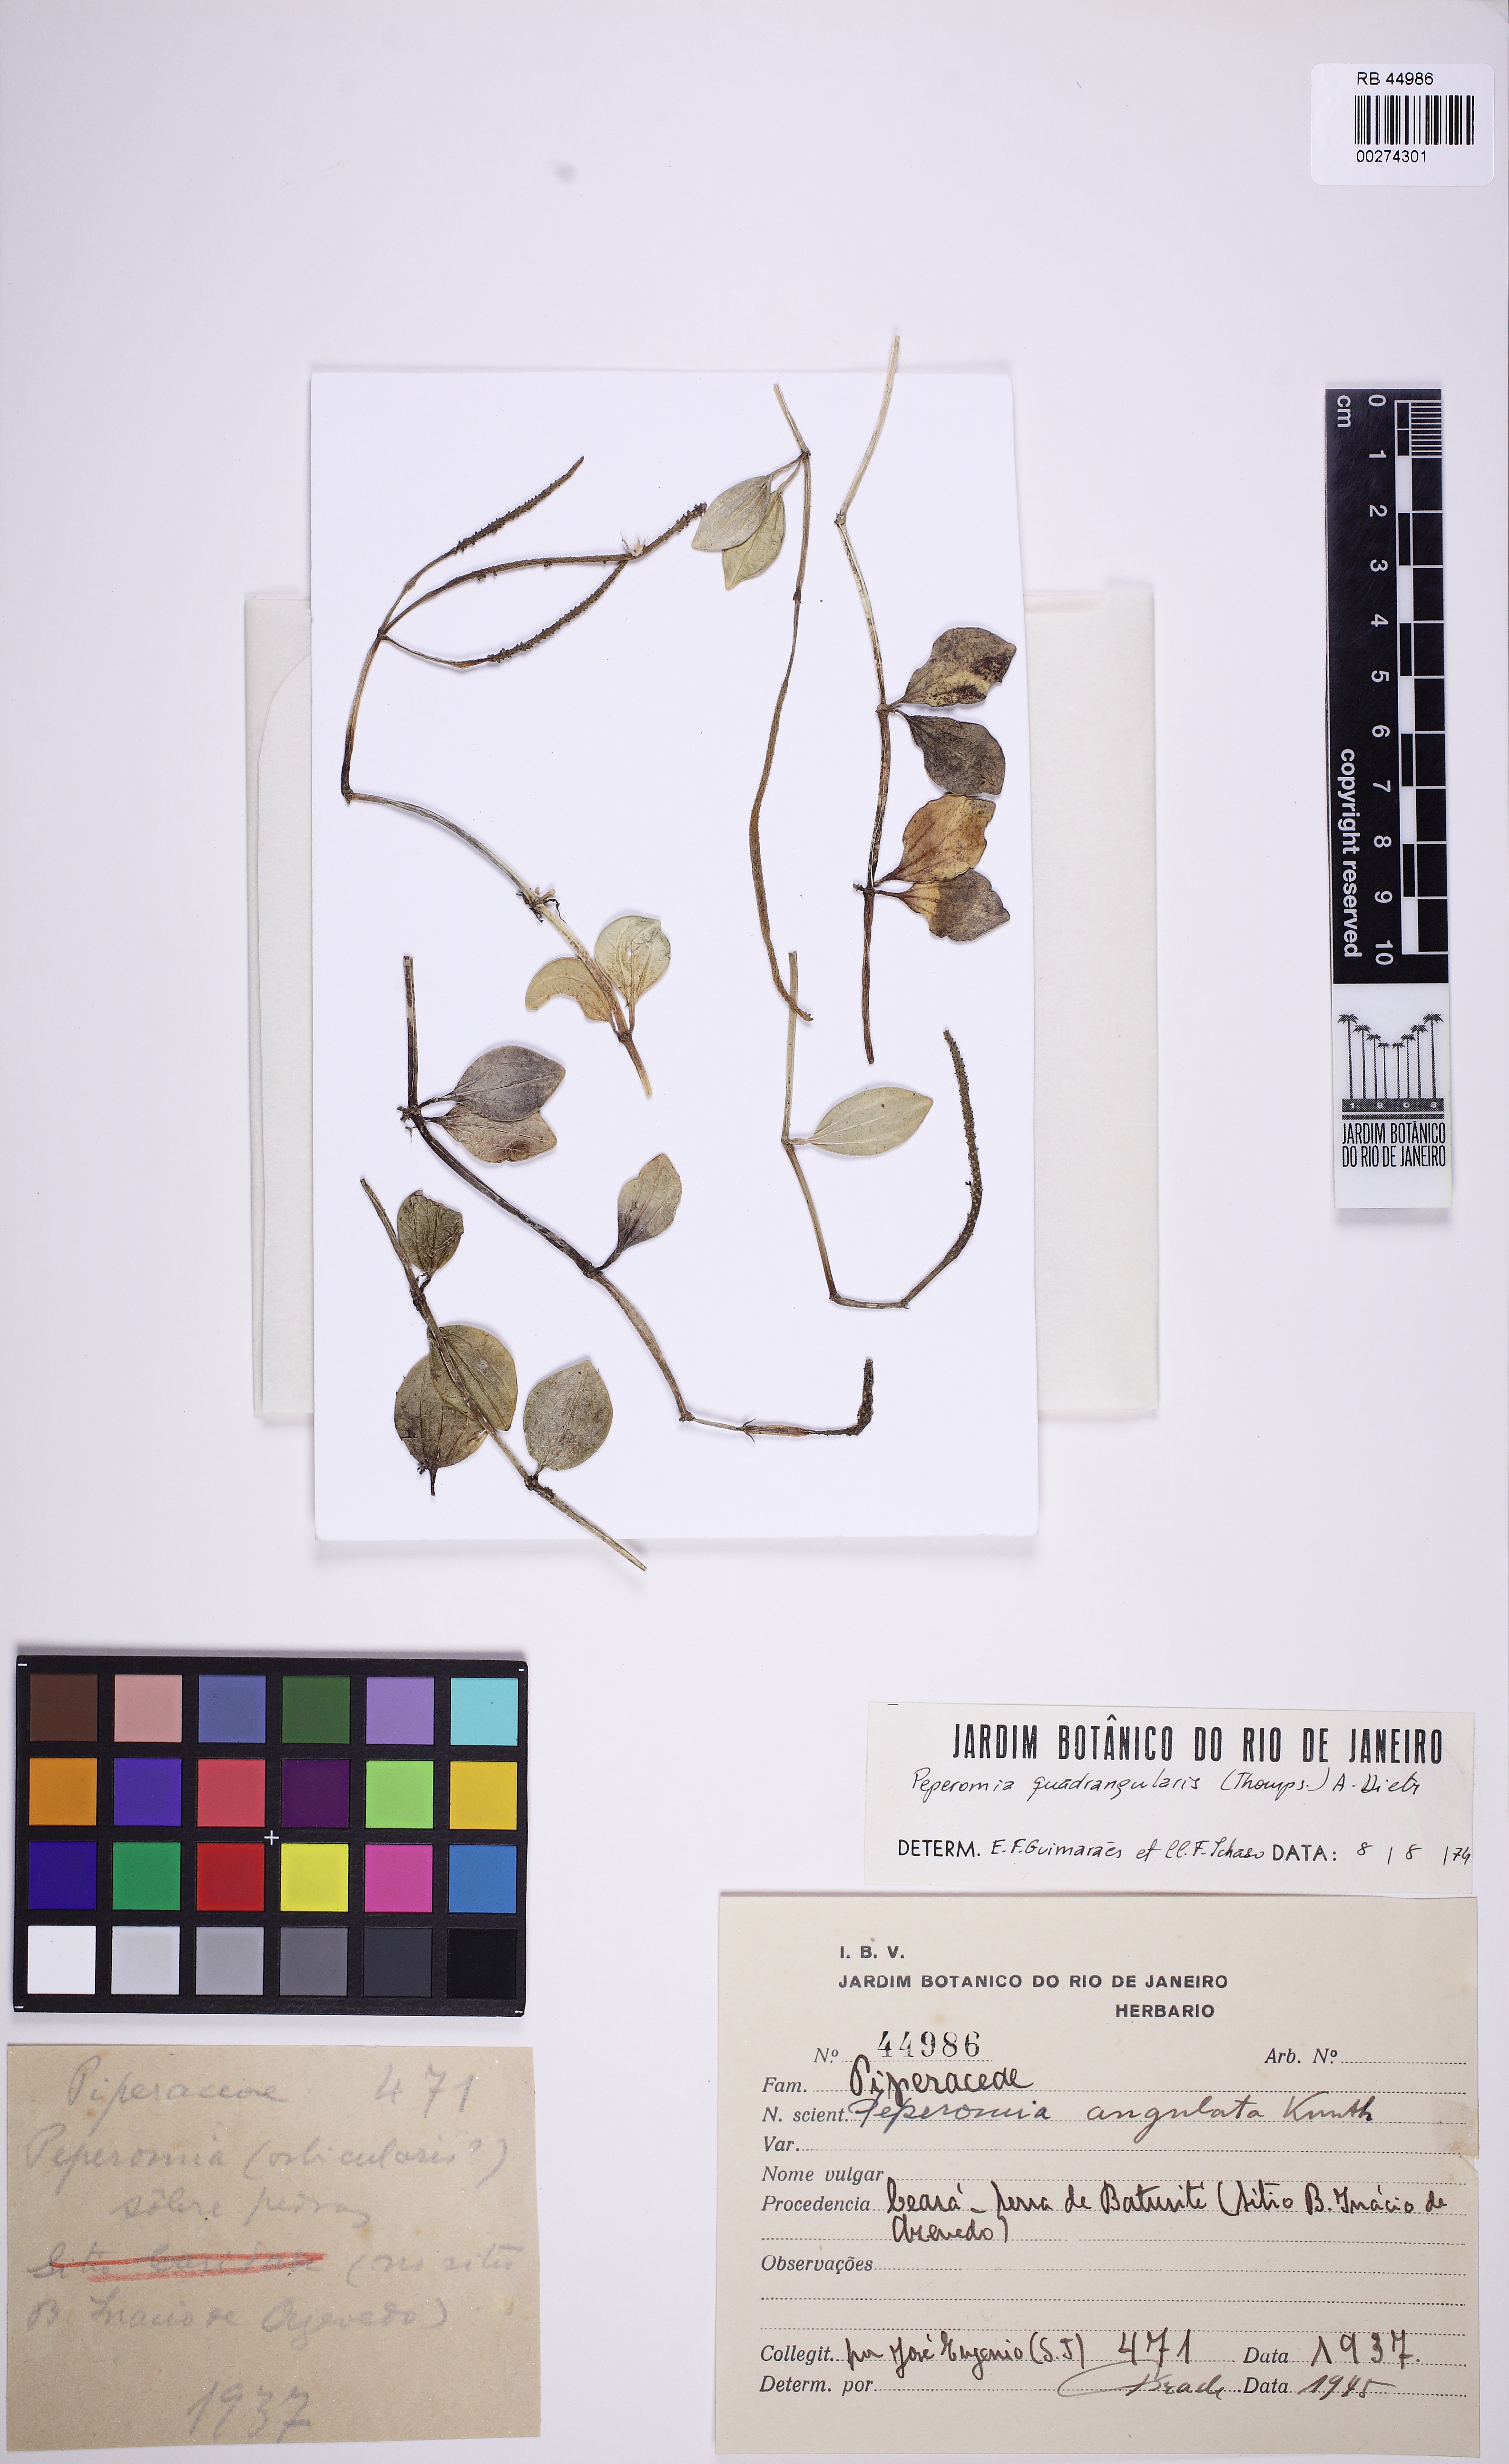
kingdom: Plantae
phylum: Tracheophyta
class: Magnoliopsida
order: Piperales
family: Piperaceae
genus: Peperomia
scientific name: Peperomia quadrangularis
